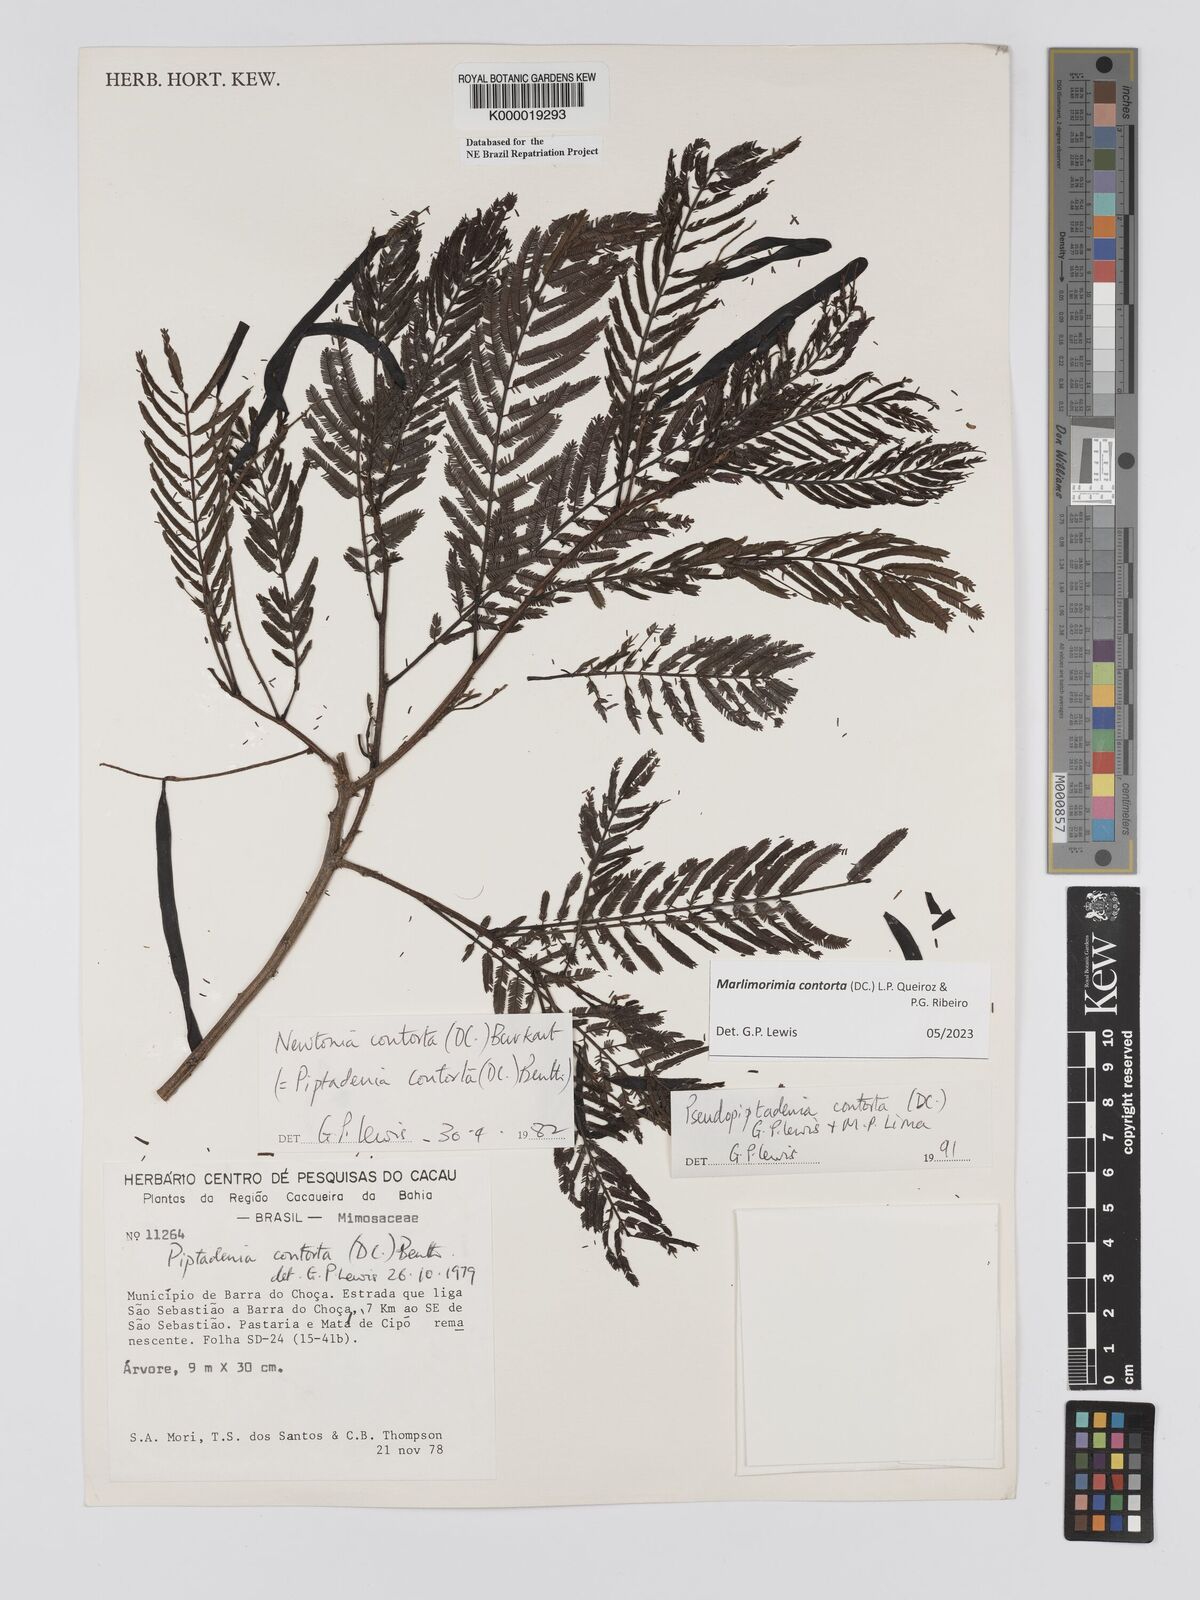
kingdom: Plantae
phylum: Tracheophyta
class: Magnoliopsida
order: Fabales
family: Fabaceae
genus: Pseudopiptadenia
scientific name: Pseudopiptadenia contorta
